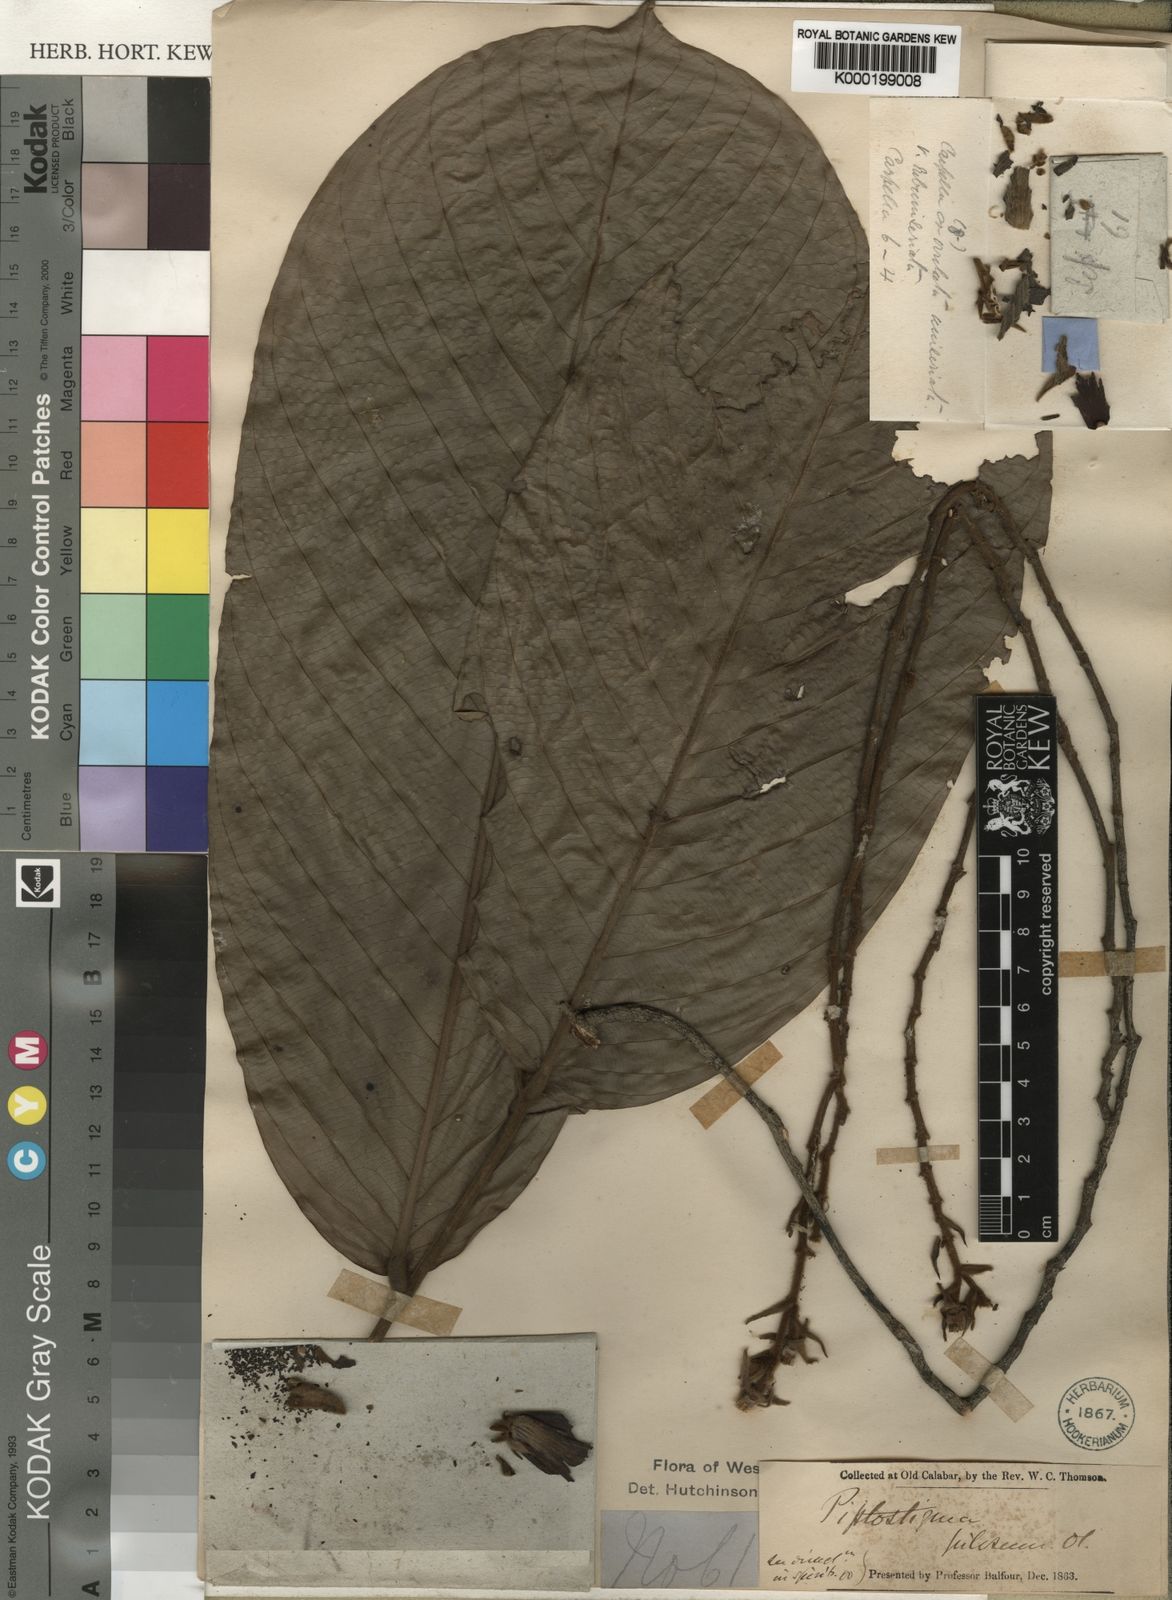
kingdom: Plantae
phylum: Tracheophyta
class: Magnoliopsida
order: Magnoliales
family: Annonaceae
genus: Piptostigma
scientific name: Piptostigma pilosum
